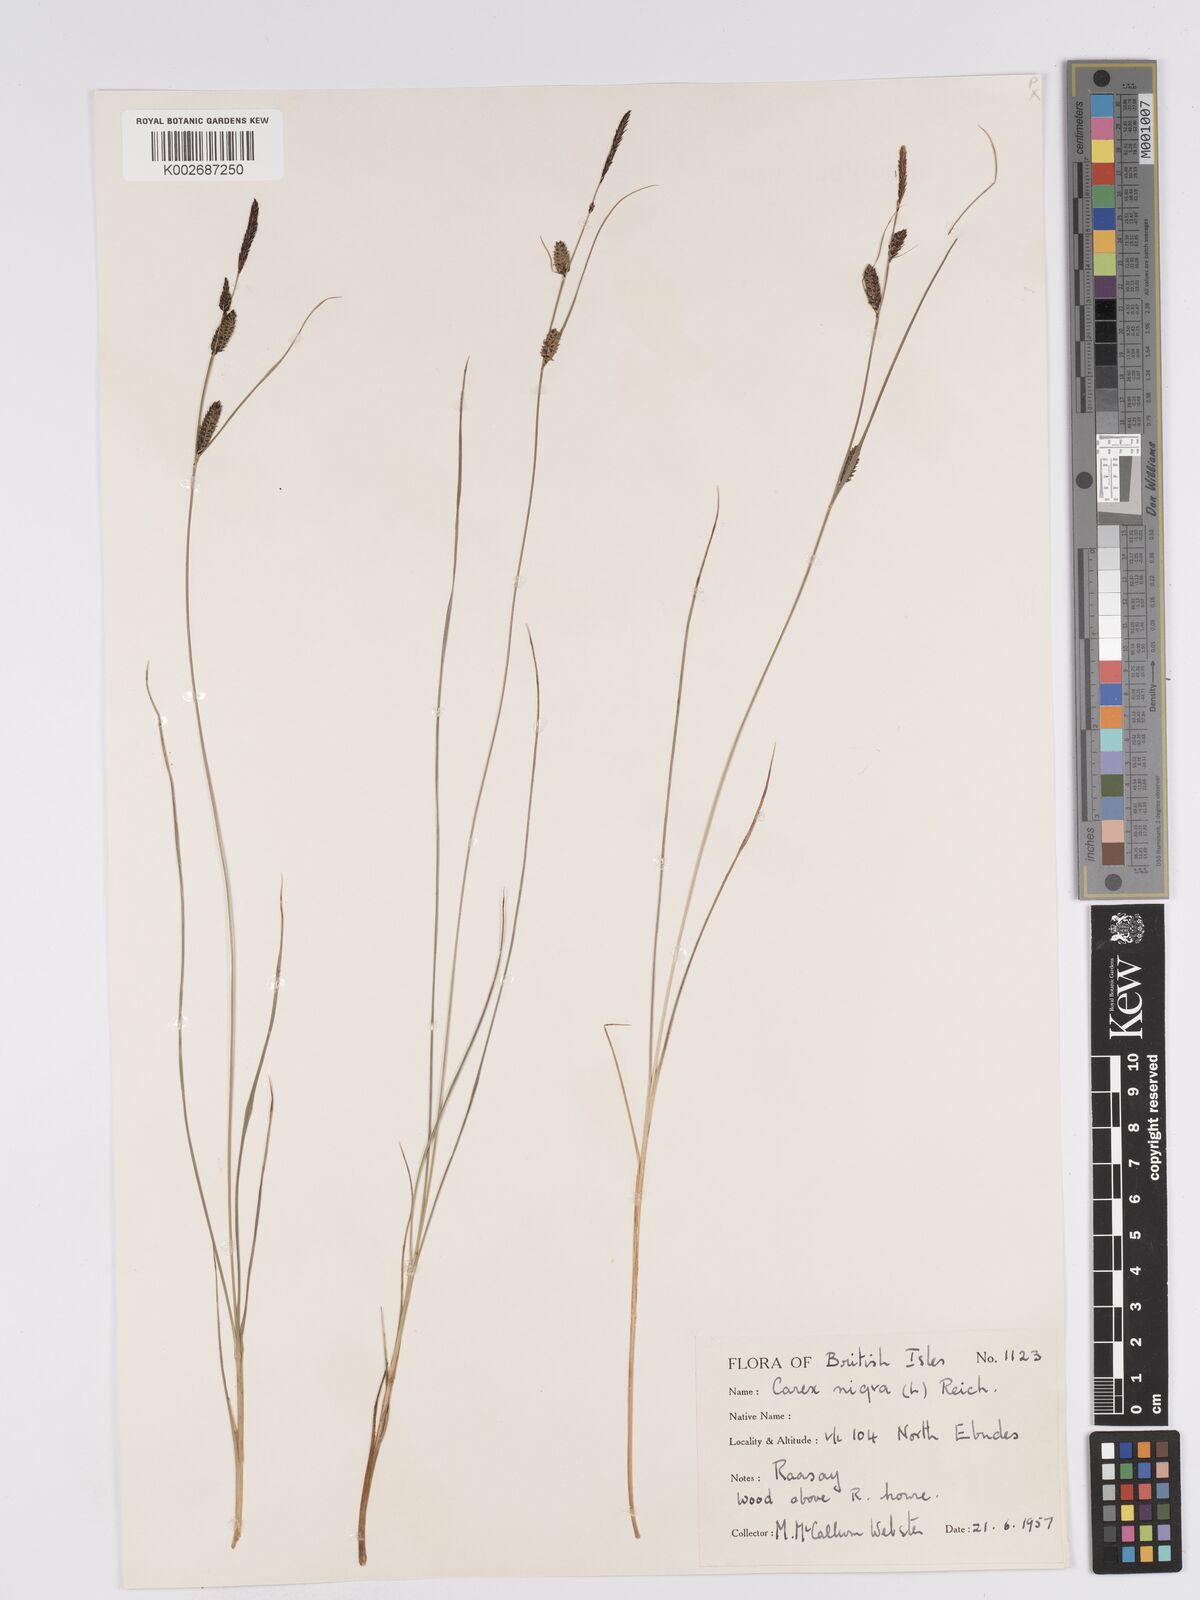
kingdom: Plantae
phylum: Tracheophyta
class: Liliopsida
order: Poales
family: Cyperaceae
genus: Carex
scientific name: Carex nigra
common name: Common sedge
